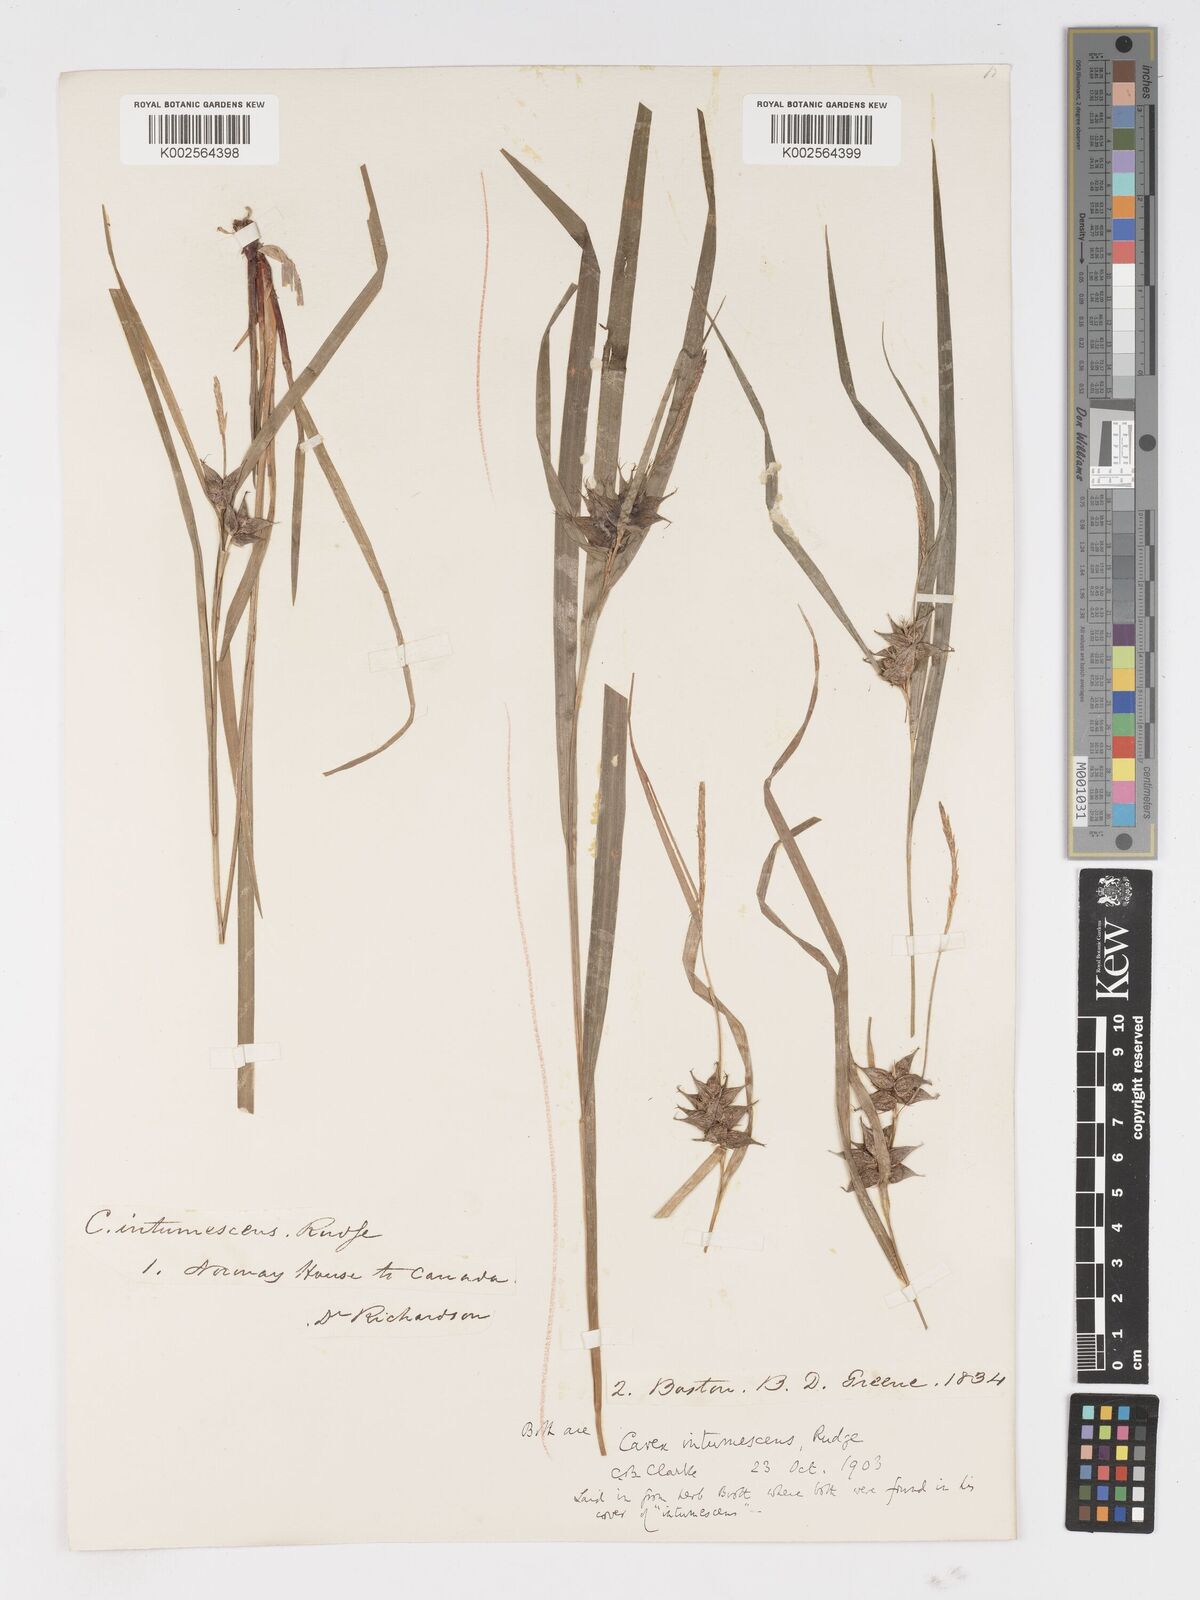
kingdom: Plantae
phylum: Tracheophyta
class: Liliopsida
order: Poales
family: Cyperaceae
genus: Carex
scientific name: Carex intumescens
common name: Greater bladder sedge
